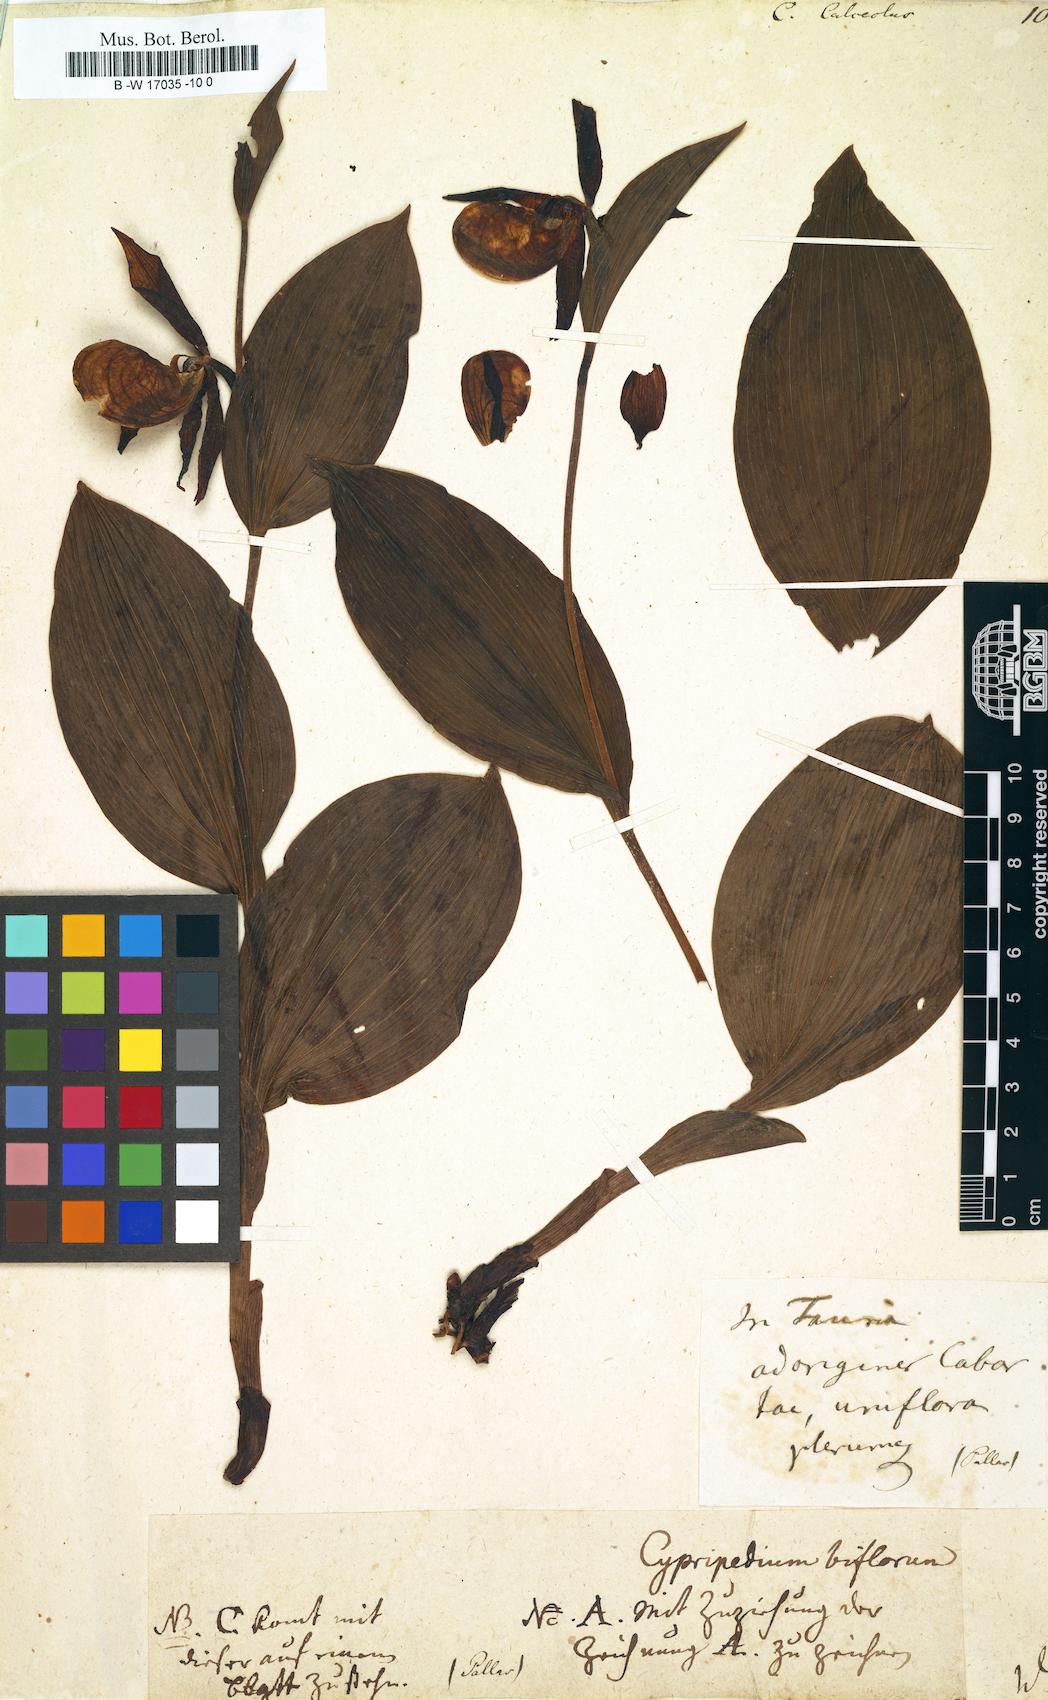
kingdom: Plantae
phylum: Tracheophyta
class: Liliopsida
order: Asparagales
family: Orchidaceae
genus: Cypripedium
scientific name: Cypripedium calceolus
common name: Lady's-slipper
